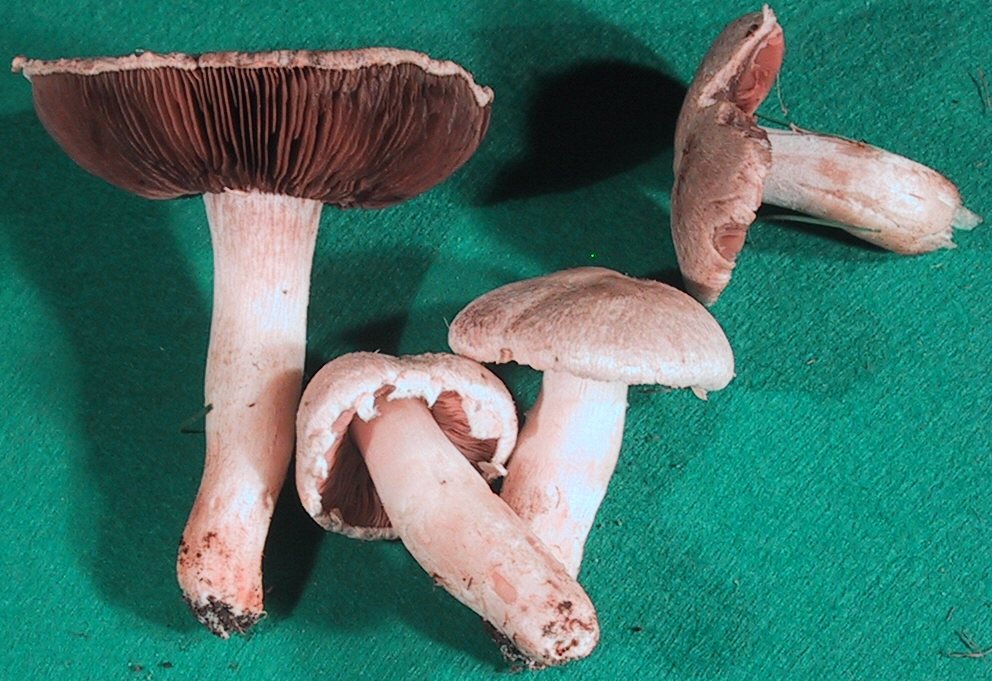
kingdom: Fungi
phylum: Basidiomycota
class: Agaricomycetes
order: Agaricales
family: Agaricaceae
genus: Agaricus
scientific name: Agaricus arvensis
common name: ager-champignon
